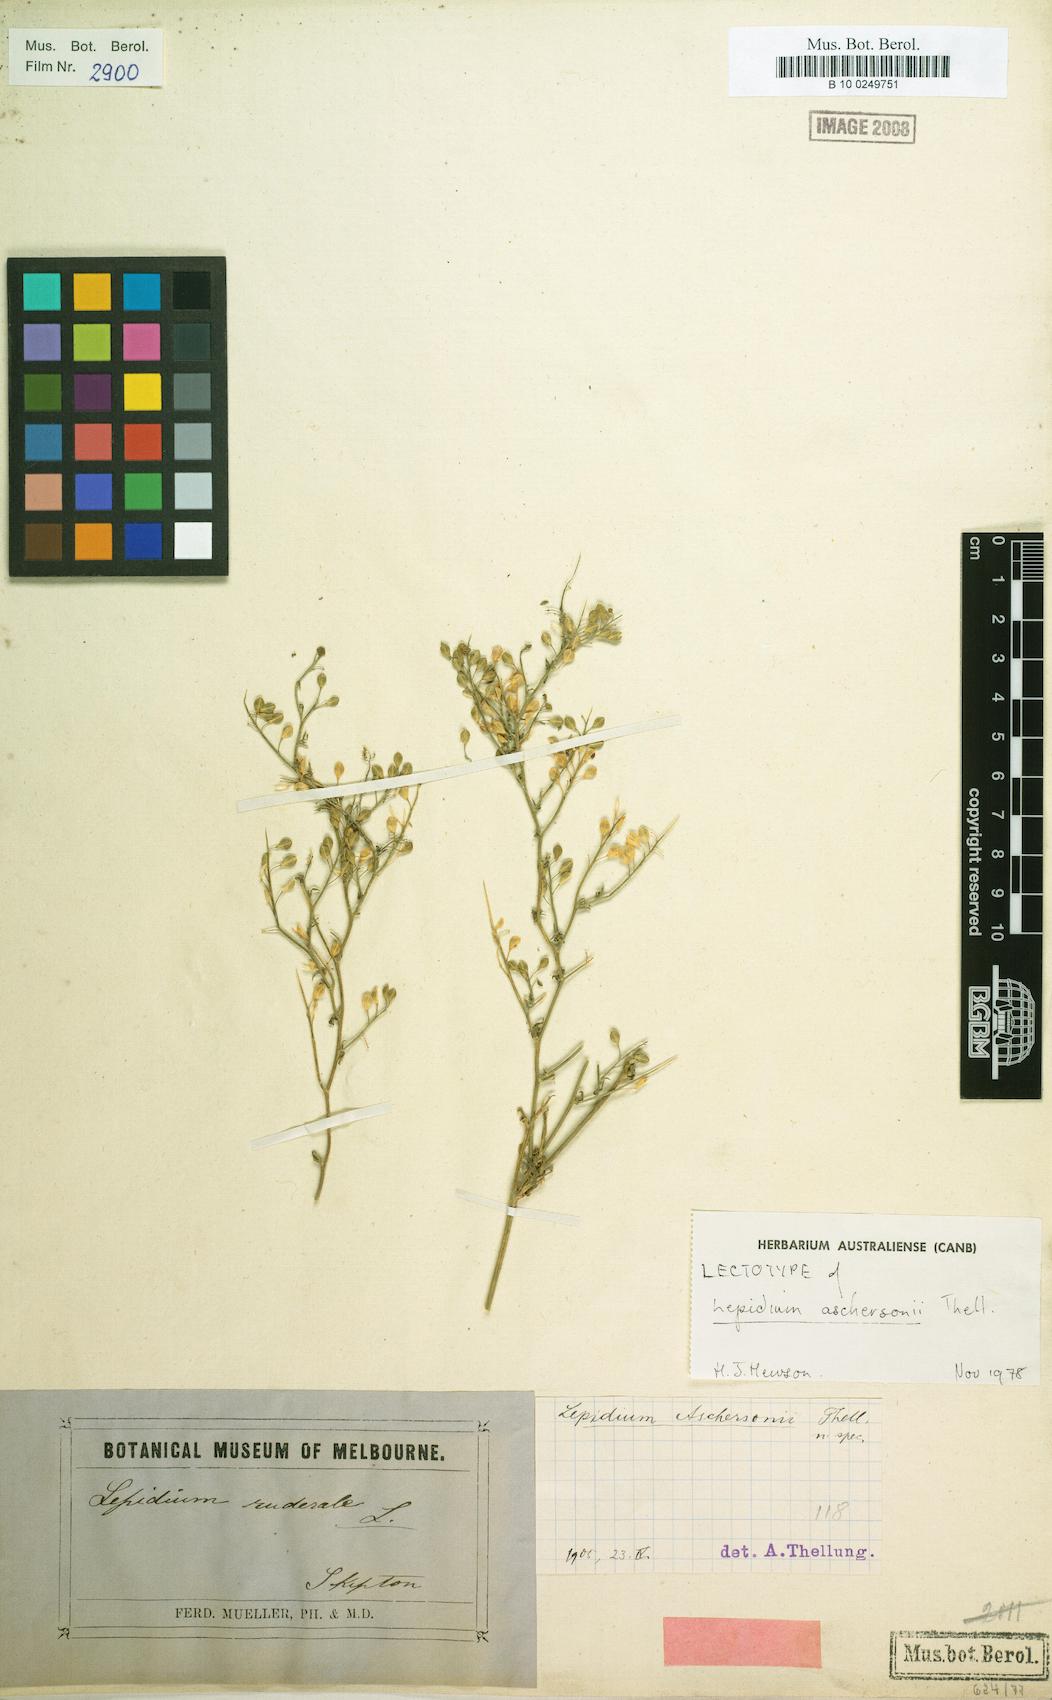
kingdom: Plantae
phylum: Tracheophyta
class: Magnoliopsida
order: Brassicales
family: Brassicaceae
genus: Lepidium
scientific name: Lepidium aschersonii
